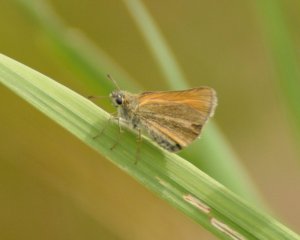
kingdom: Animalia
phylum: Arthropoda
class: Insecta
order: Lepidoptera
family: Hesperiidae
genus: Thymelicus
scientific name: Thymelicus lineola
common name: European Skipper
